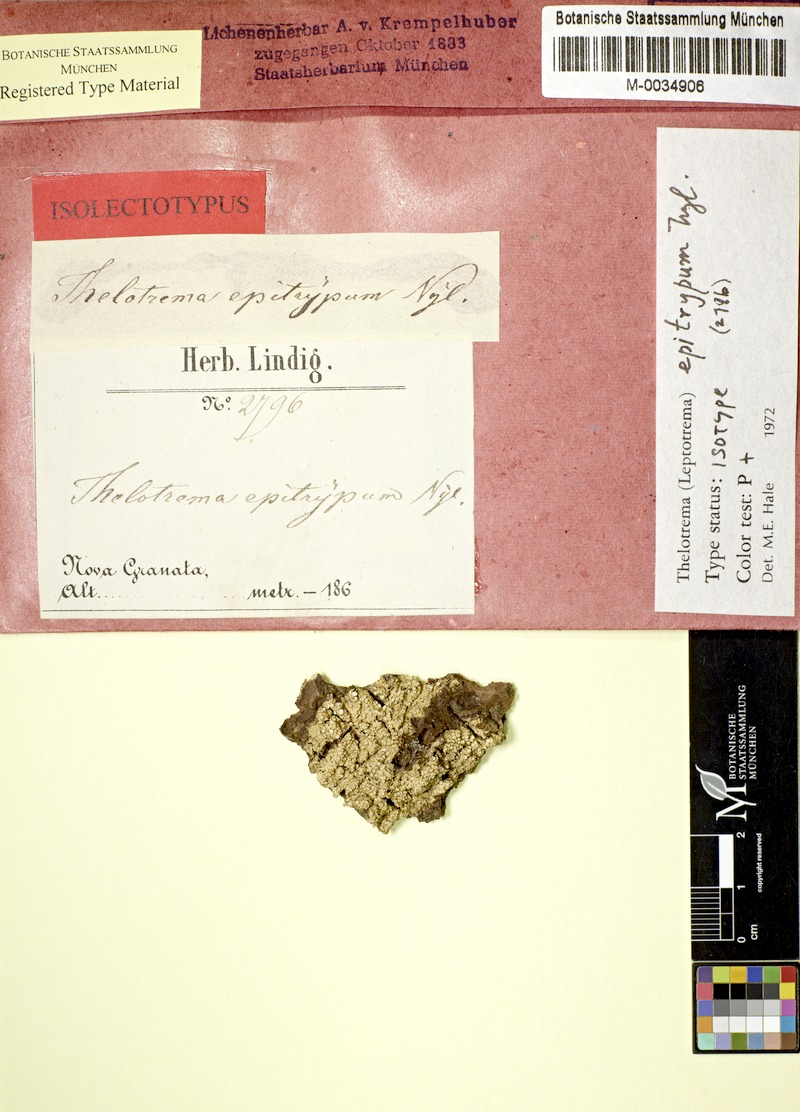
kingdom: Fungi
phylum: Ascomycota
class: Lecanoromycetes
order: Ostropales
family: Graphidaceae
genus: Stegobolus
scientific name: Stegobolus fissus
